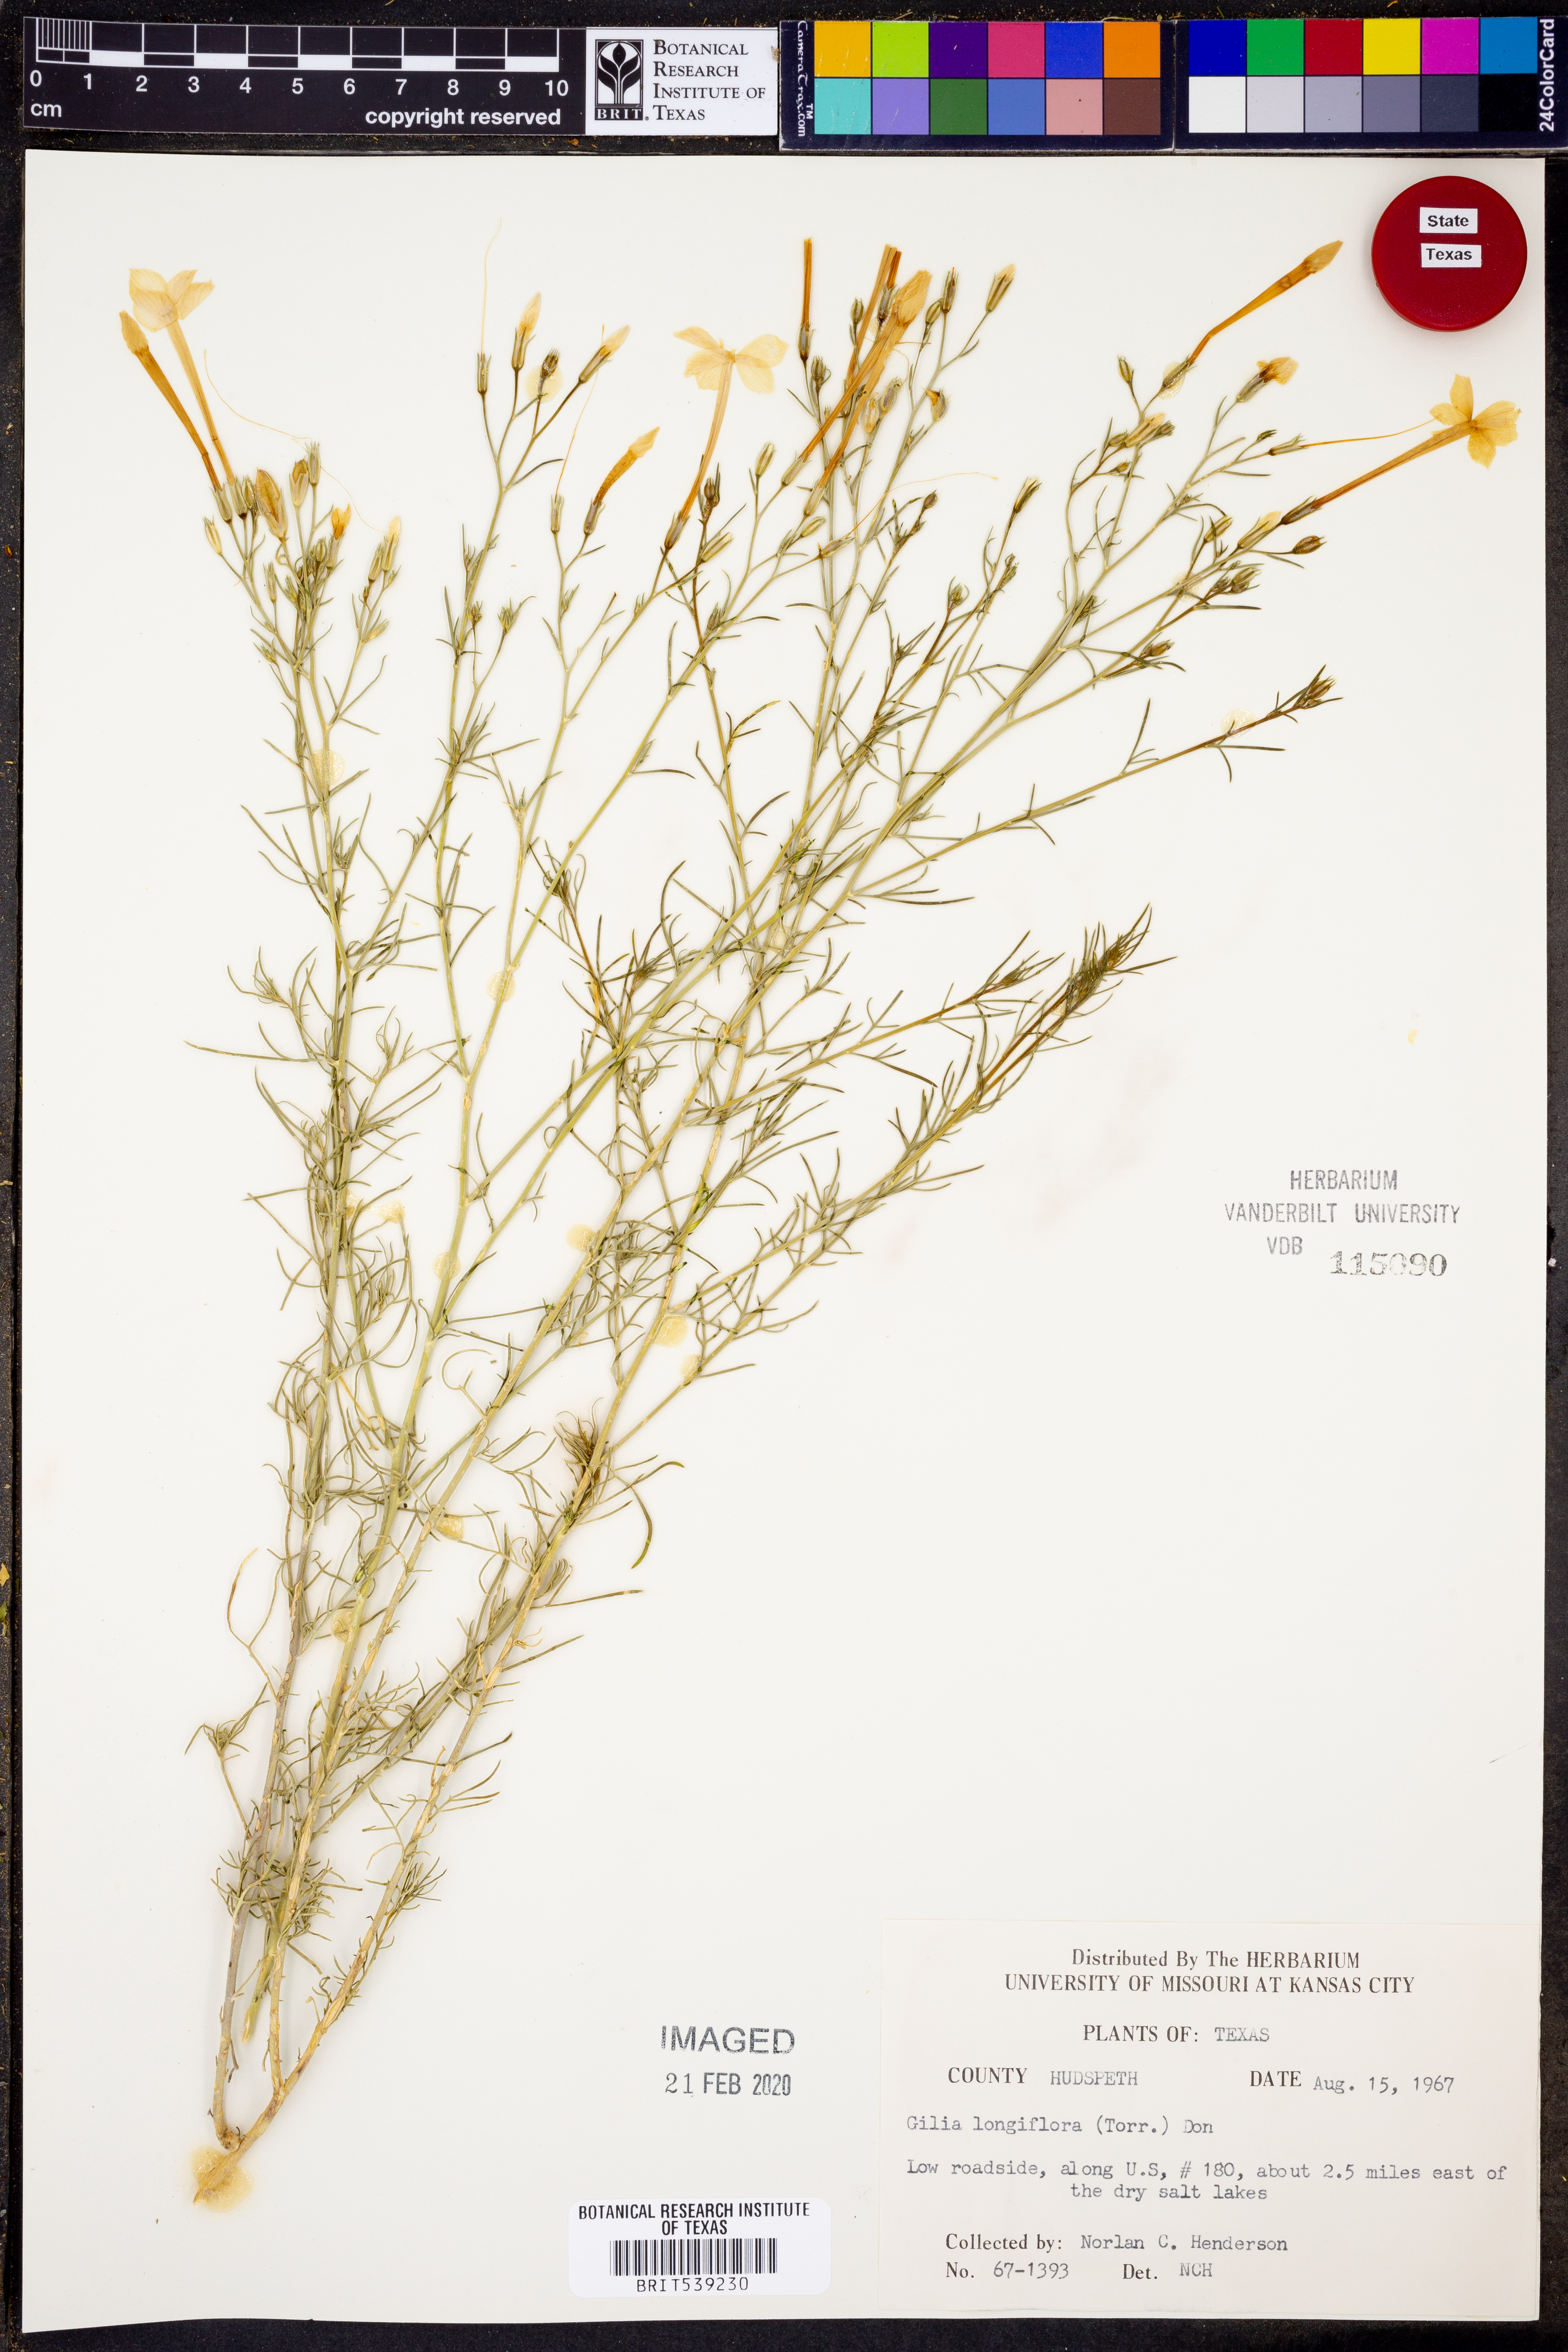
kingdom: Plantae
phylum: Tracheophyta
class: Magnoliopsida
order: Ericales
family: Polemoniaceae
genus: Ipomopsis
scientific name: Ipomopsis longiflora
